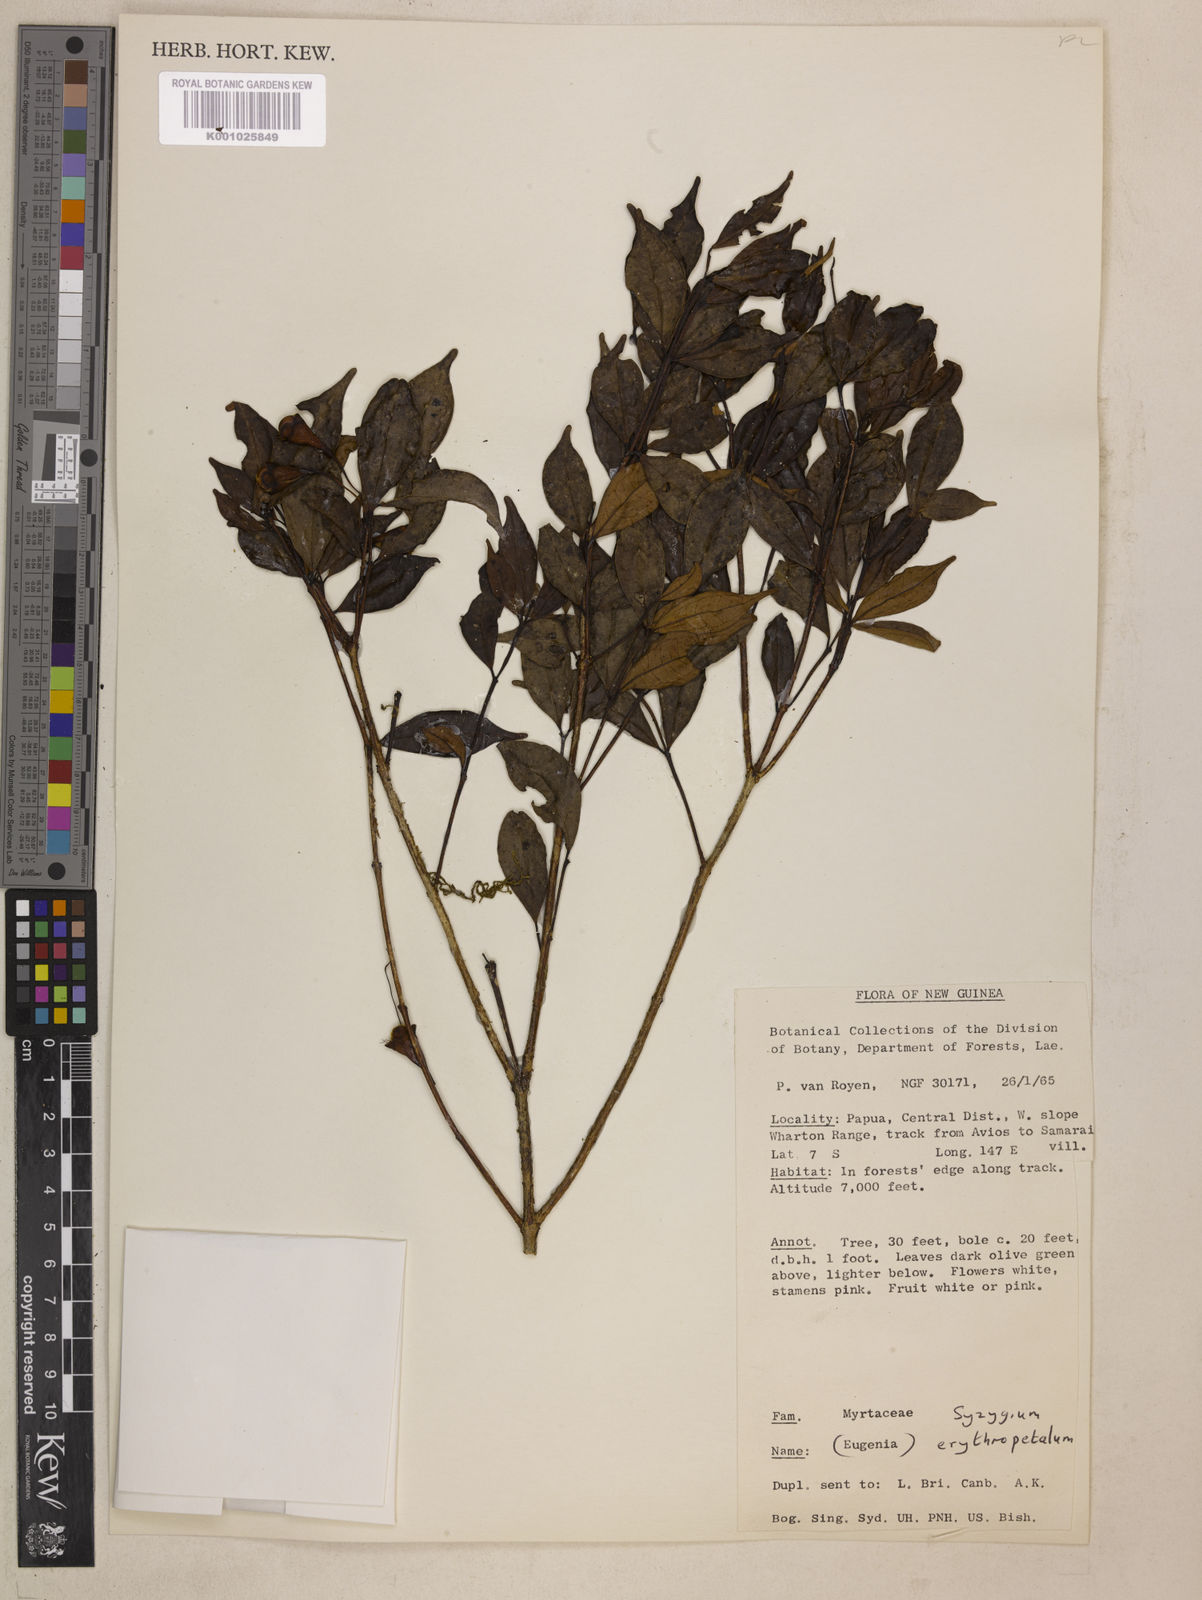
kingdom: Plantae
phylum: Tracheophyta
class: Magnoliopsida
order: Myrtales
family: Myrtaceae
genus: Syzygium
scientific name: Syzygium erythropetalum
